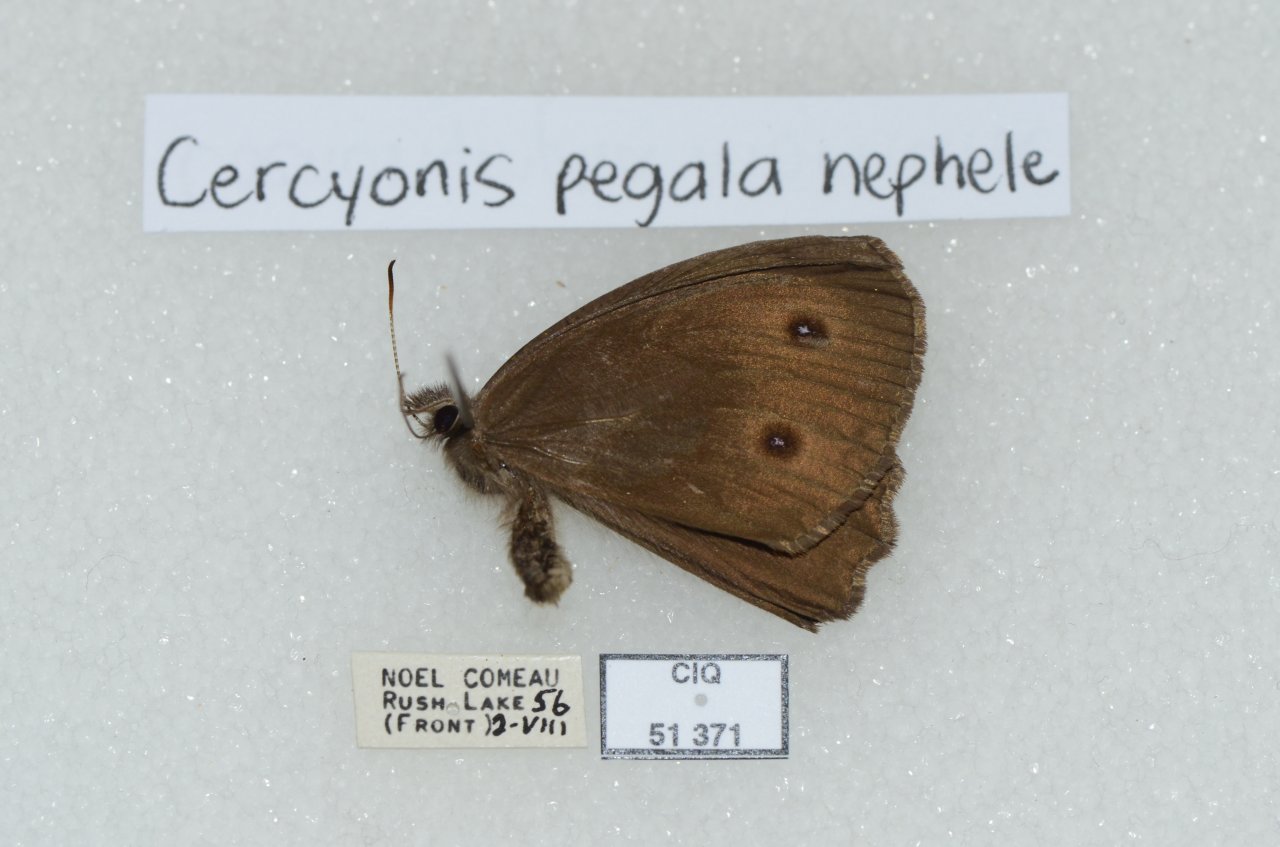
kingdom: Animalia
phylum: Arthropoda
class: Insecta
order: Lepidoptera
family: Nymphalidae
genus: Cercyonis
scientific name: Cercyonis pegala
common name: Common Wood-Nymph
